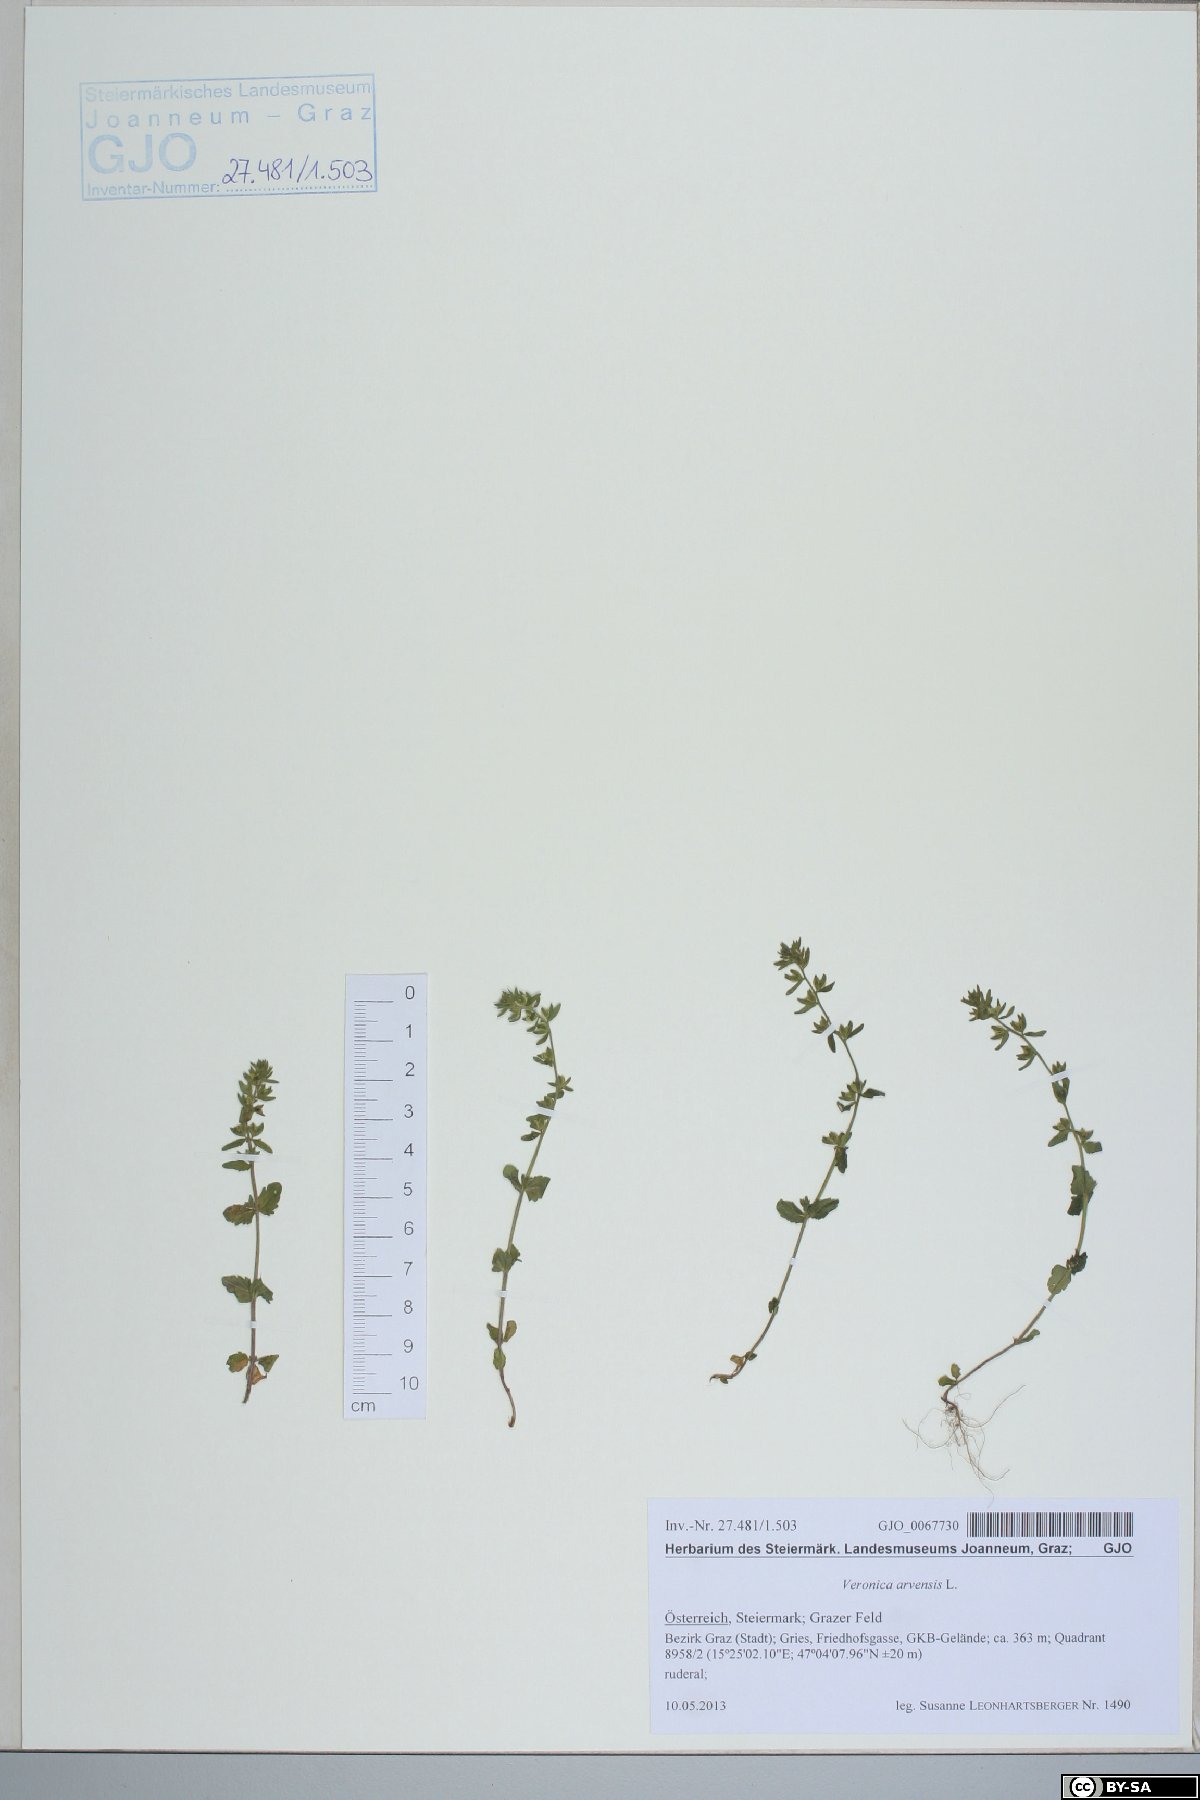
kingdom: Plantae
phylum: Tracheophyta
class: Magnoliopsida
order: Lamiales
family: Plantaginaceae
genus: Veronica
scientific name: Veronica arvensis
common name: Corn speedwell
